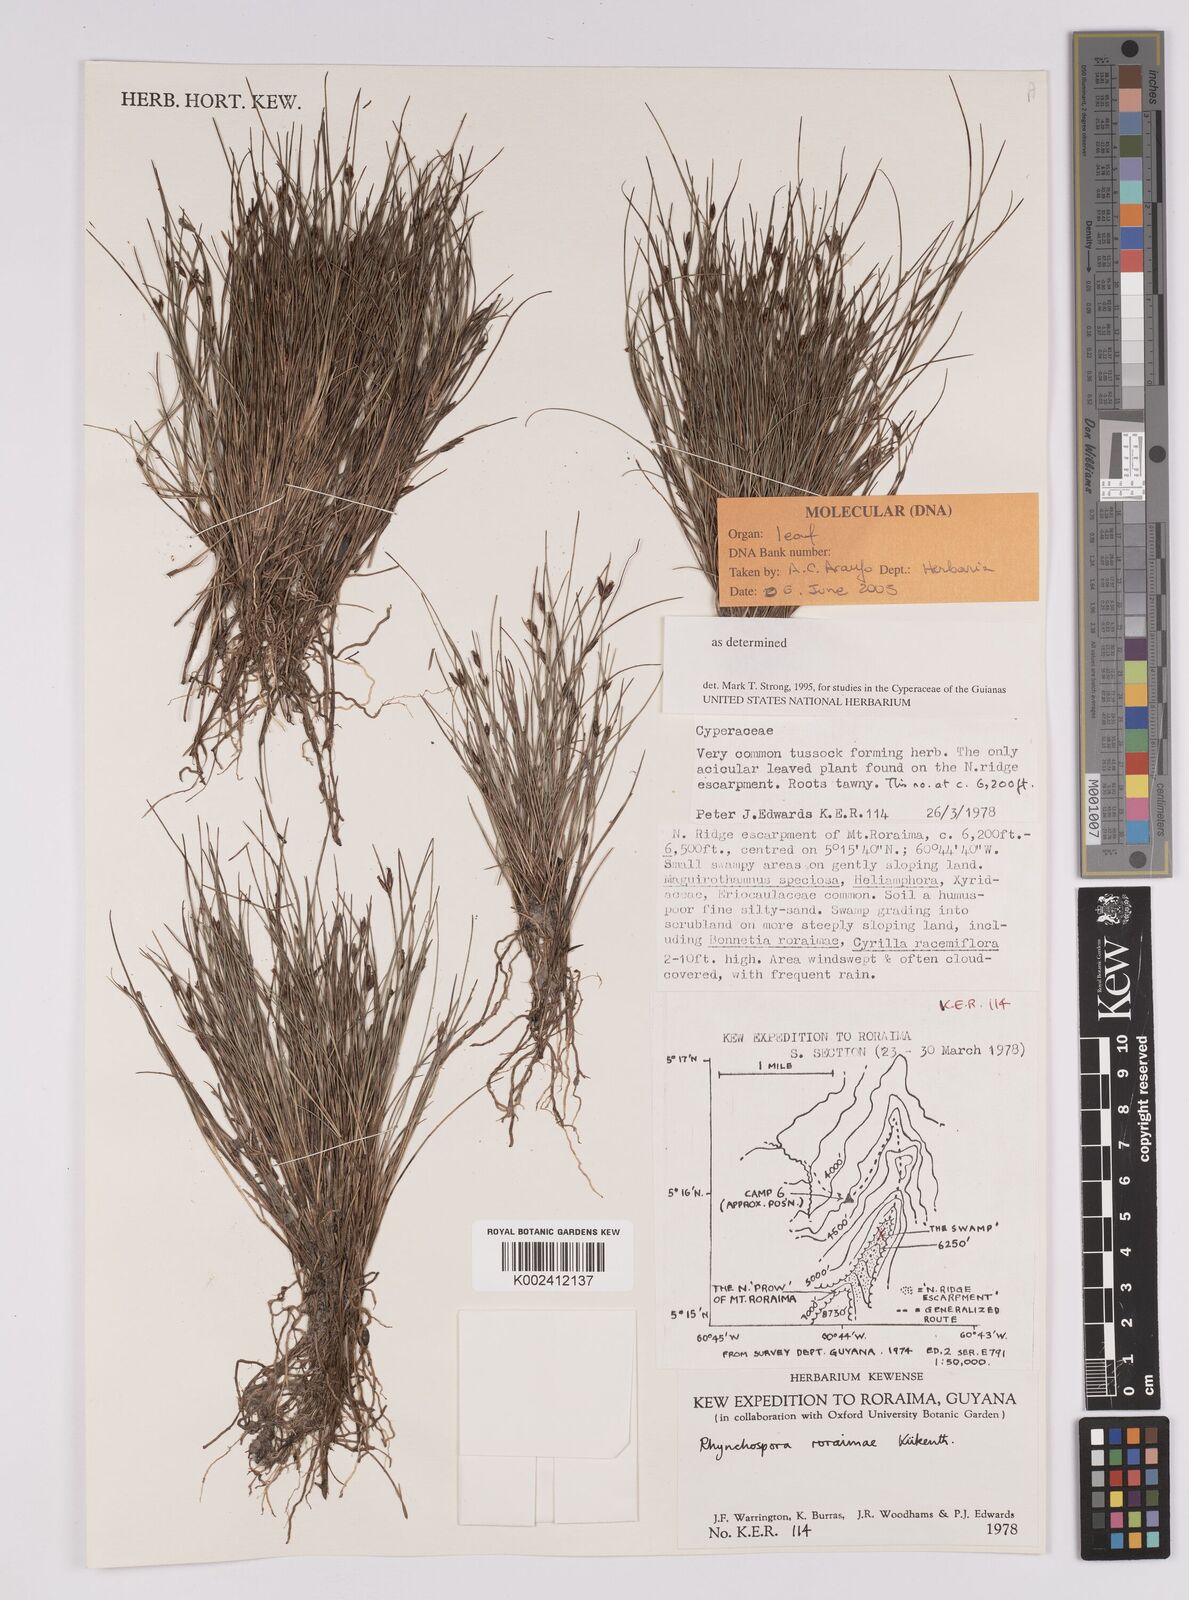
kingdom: Plantae
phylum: Tracheophyta
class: Liliopsida
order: Poales
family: Cyperaceae
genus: Rhynchospora
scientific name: Rhynchospora roraimae
